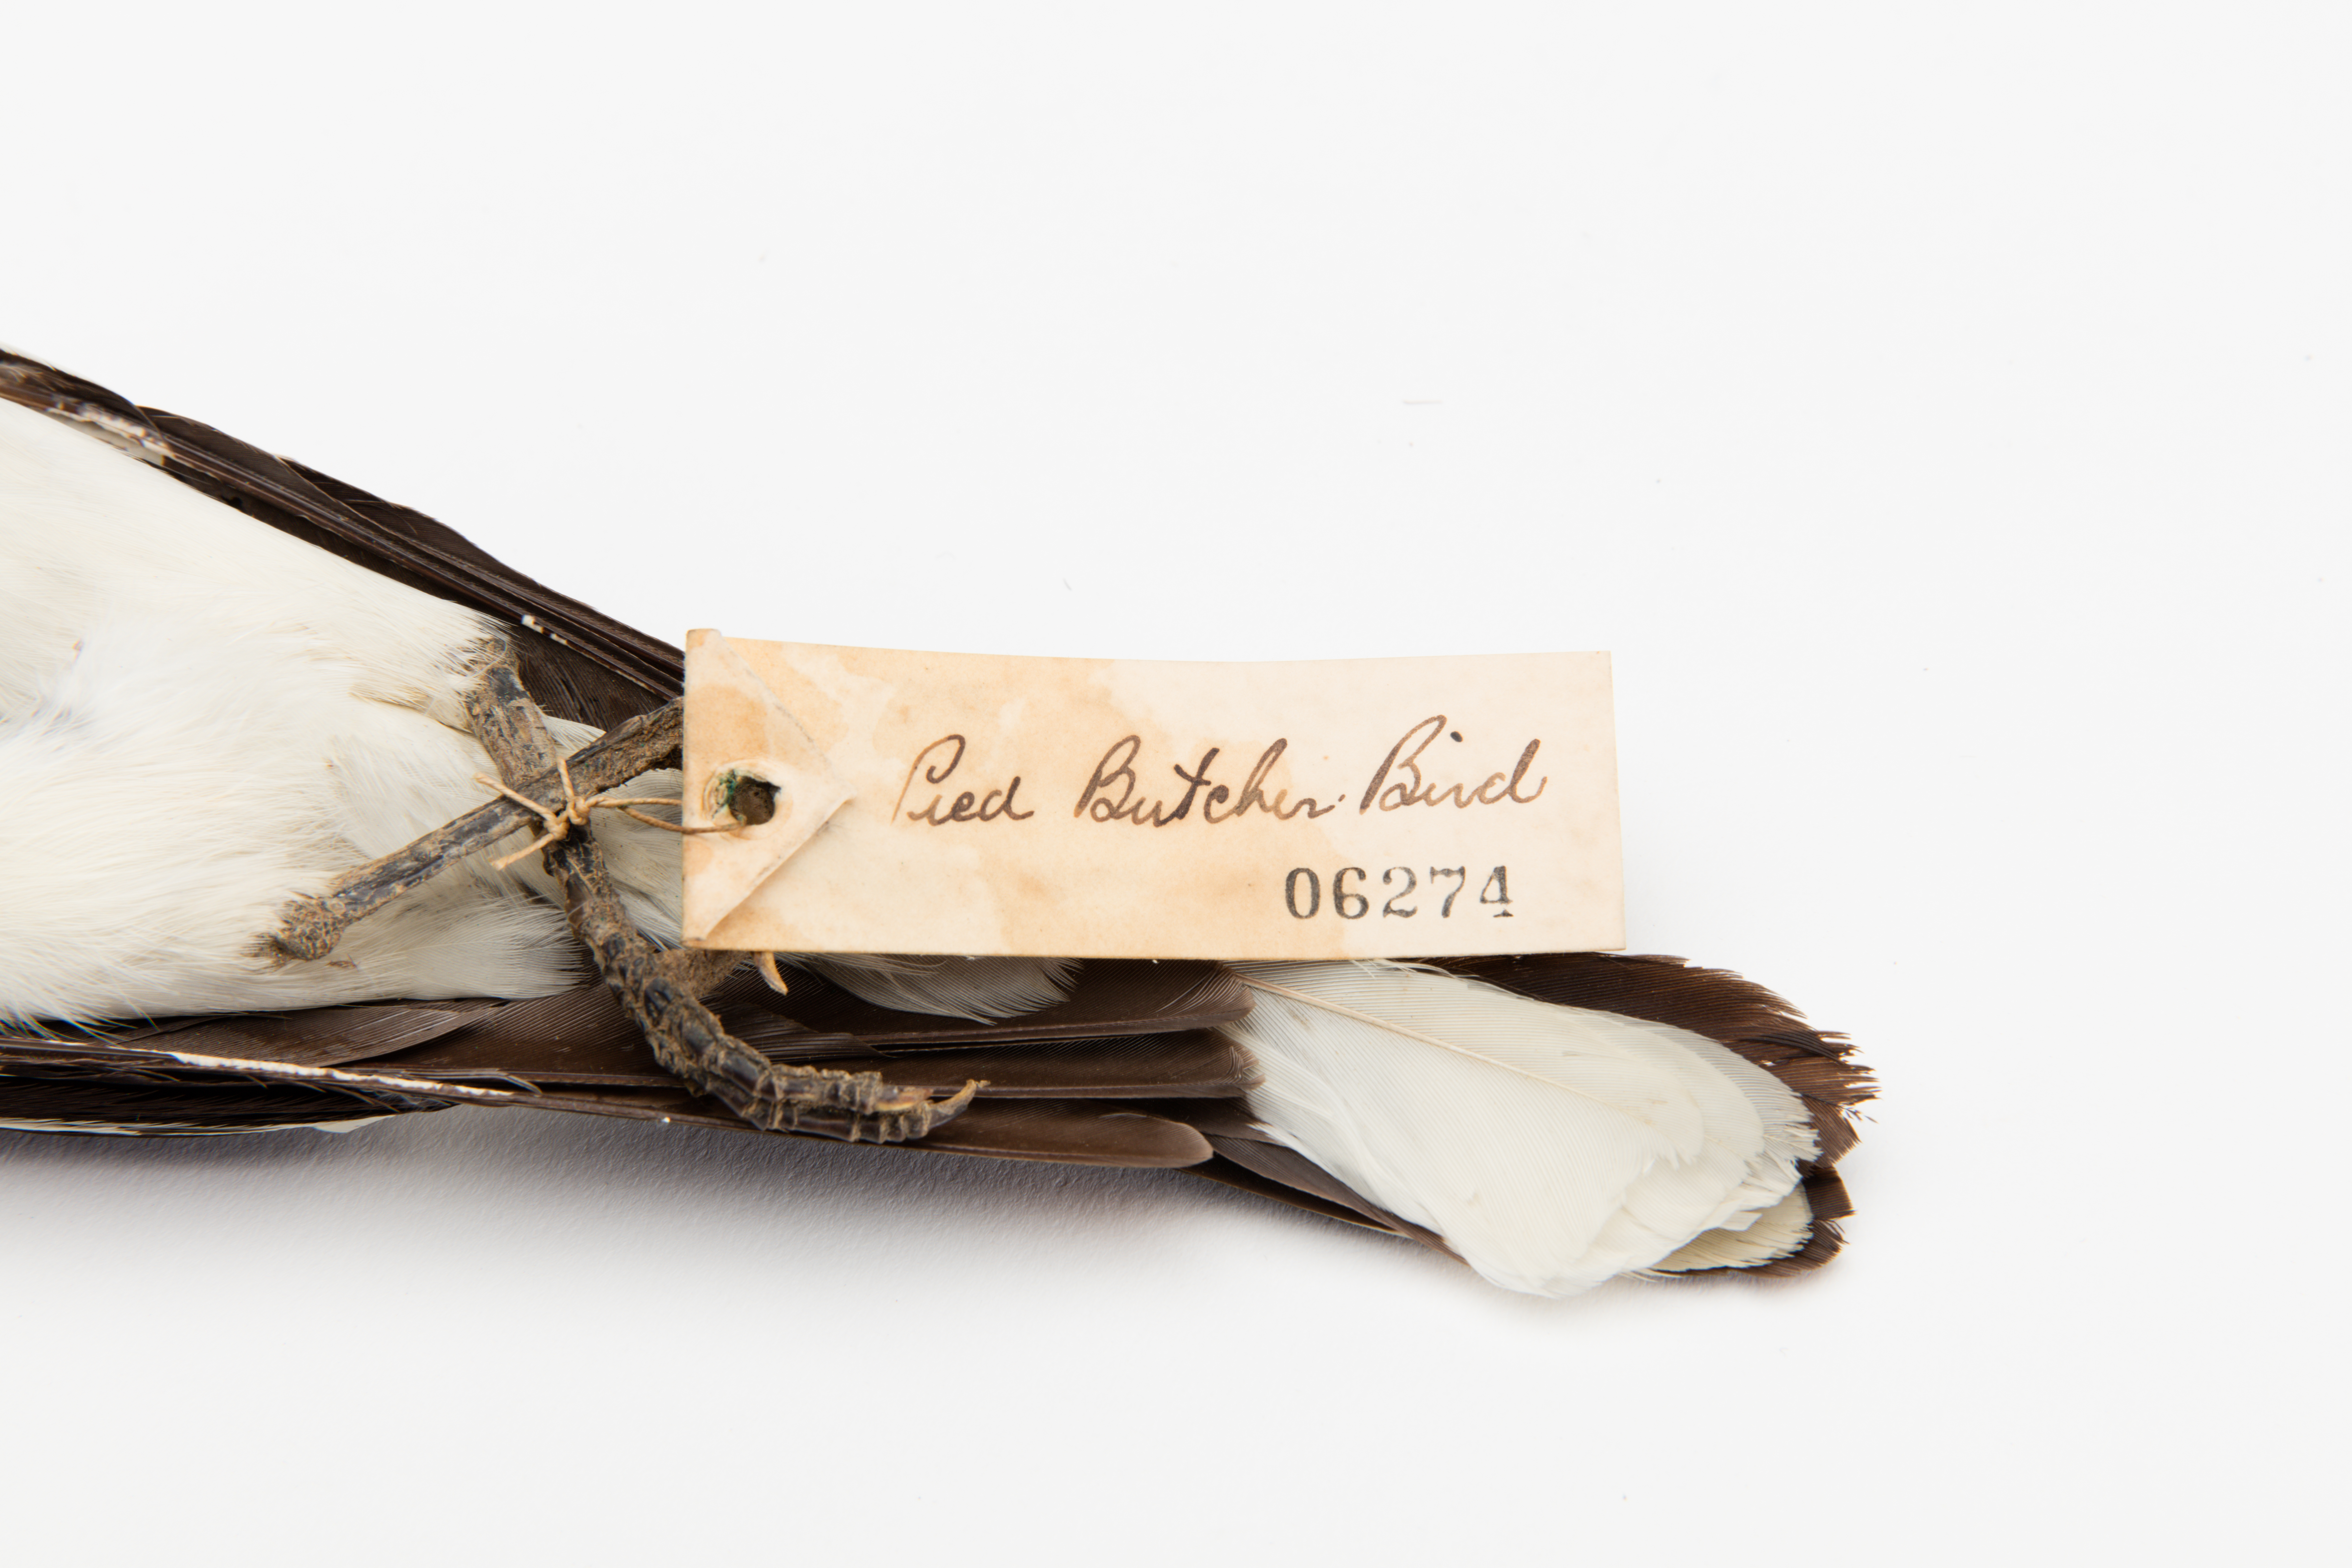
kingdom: Animalia
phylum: Chordata
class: Aves
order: Passeriformes
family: Cracticidae
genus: Cracticus
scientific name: Cracticus nigrogularis
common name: Pied butcherbird
